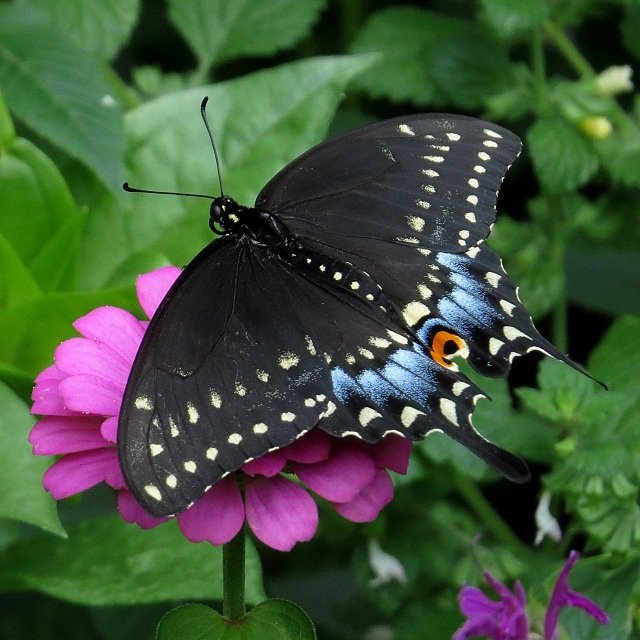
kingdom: Animalia
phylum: Arthropoda
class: Insecta
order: Lepidoptera
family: Papilionidae
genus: Papilio
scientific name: Papilio polyxenes
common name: Black Swallowtail
